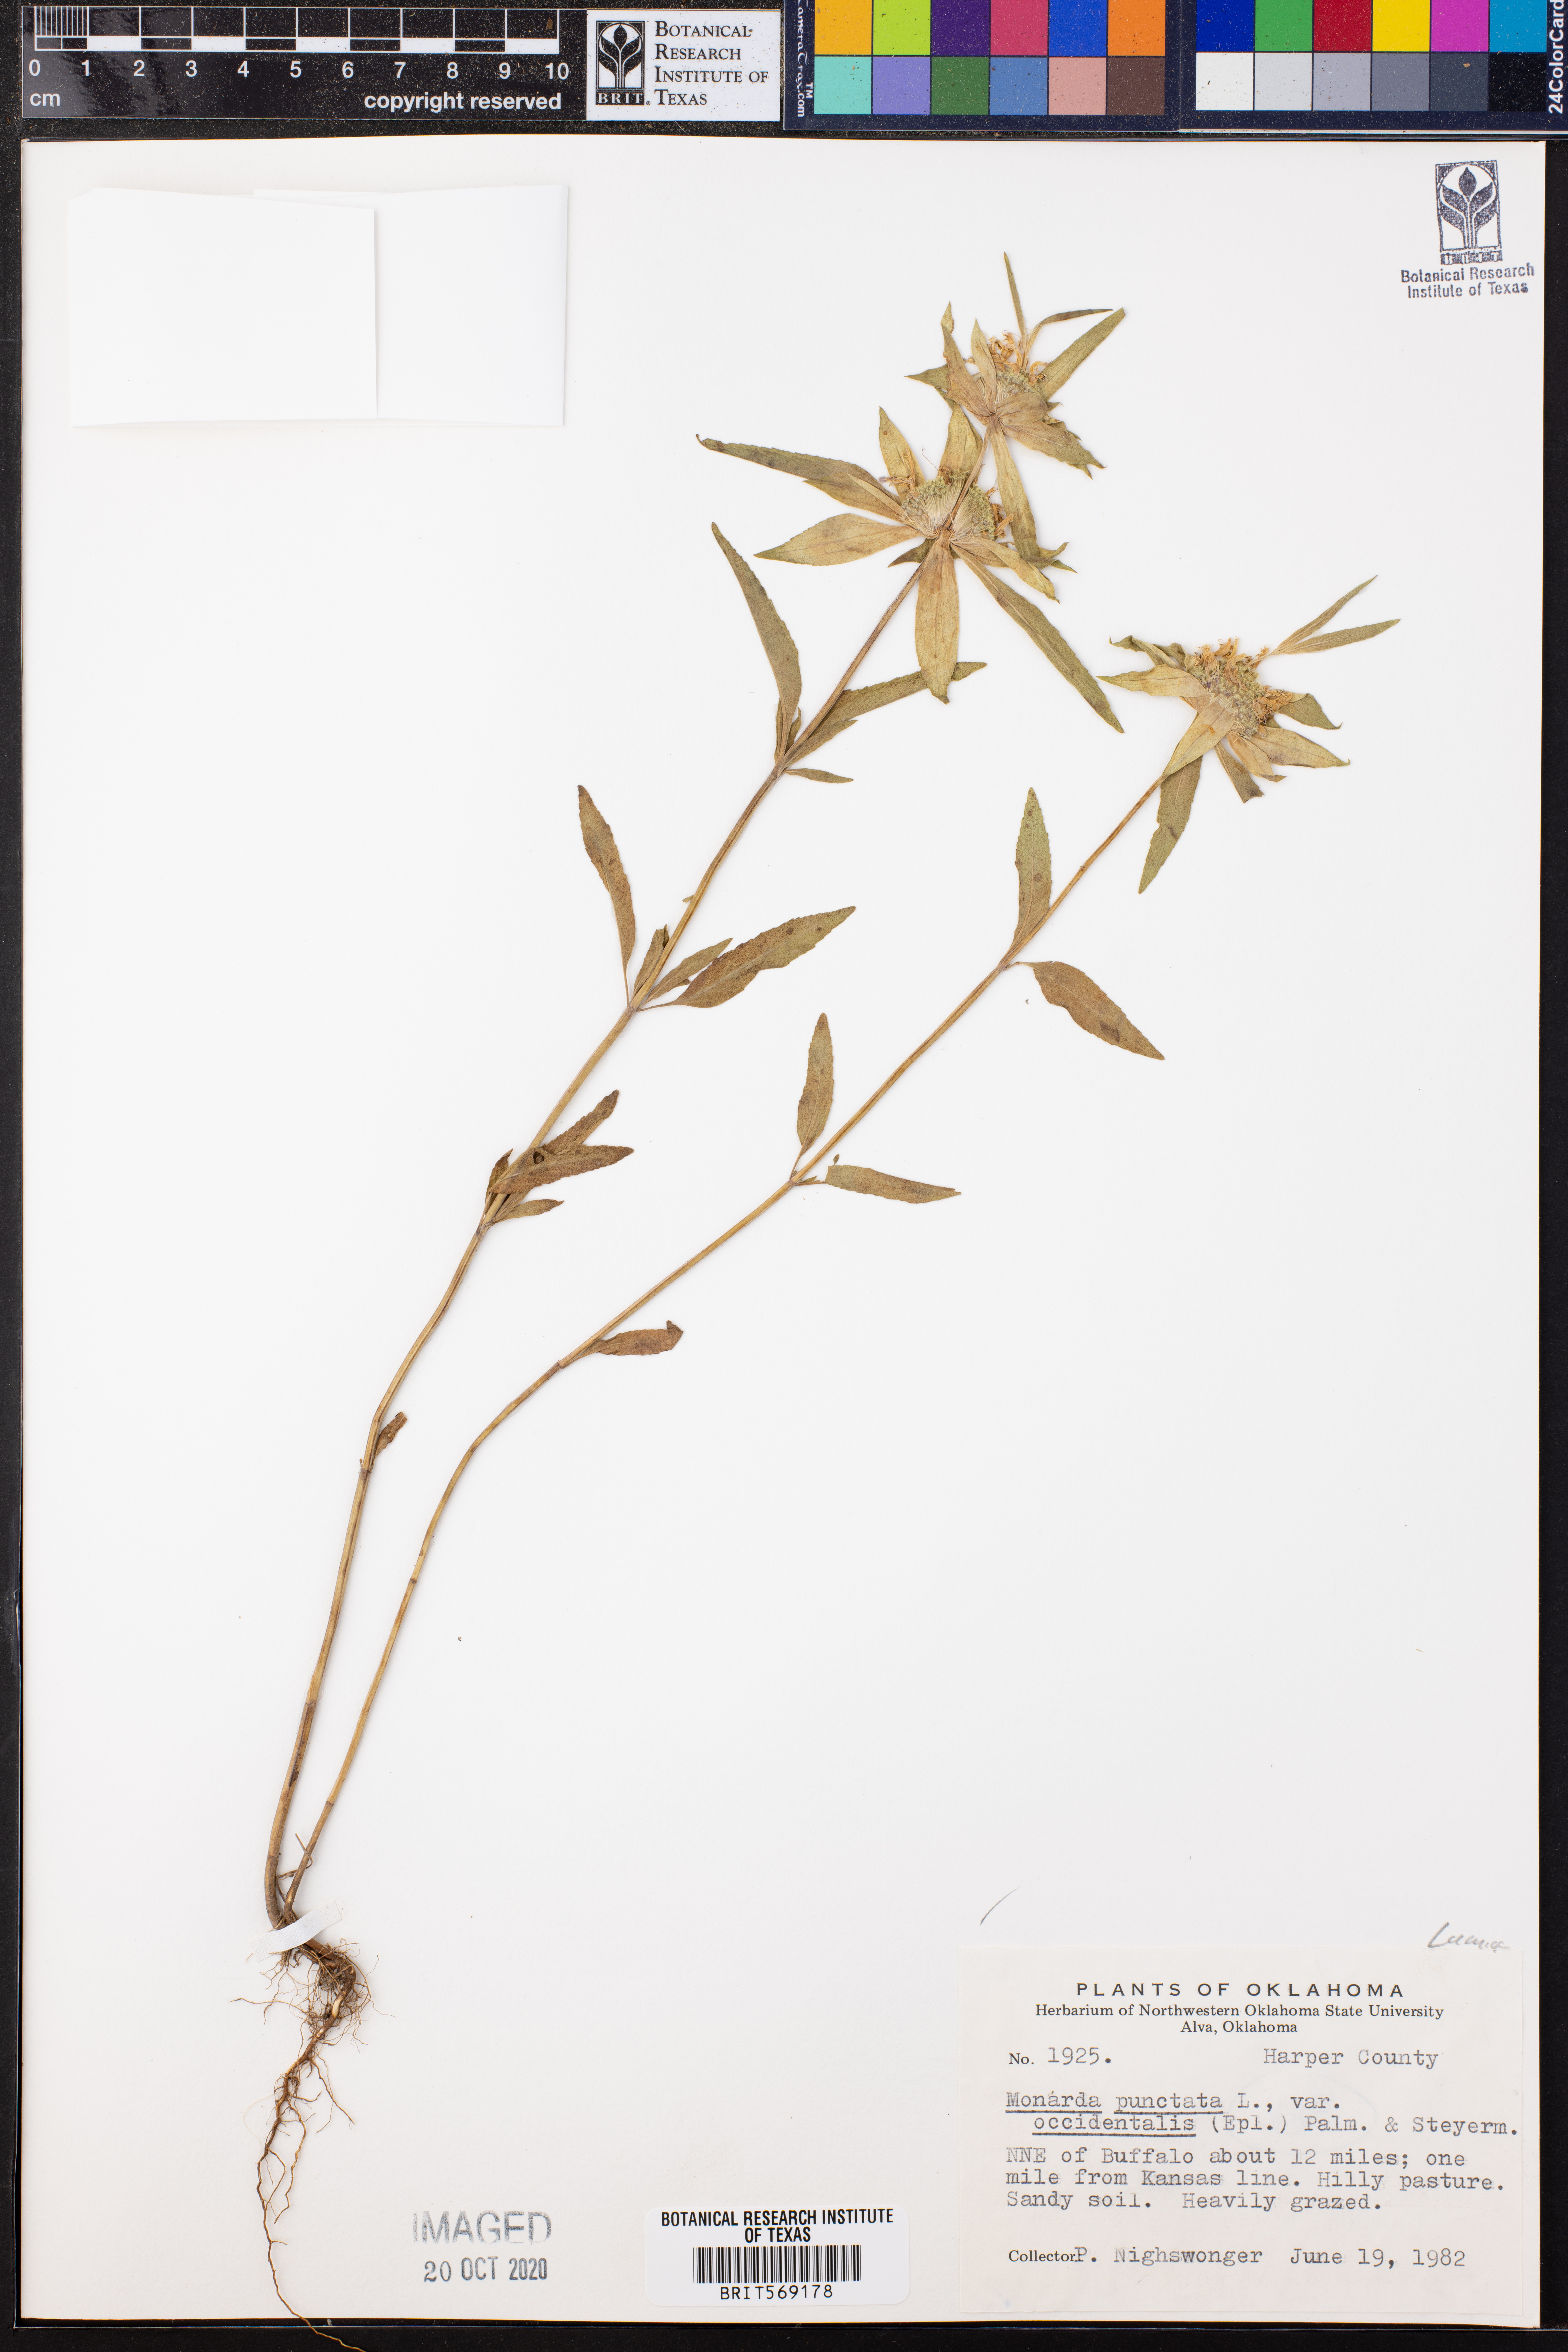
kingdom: Plantae
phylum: Tracheophyta
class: Magnoliopsida
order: Lamiales
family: Lamiaceae
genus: Monarda
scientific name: Monarda punctata
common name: Dotted monarda
